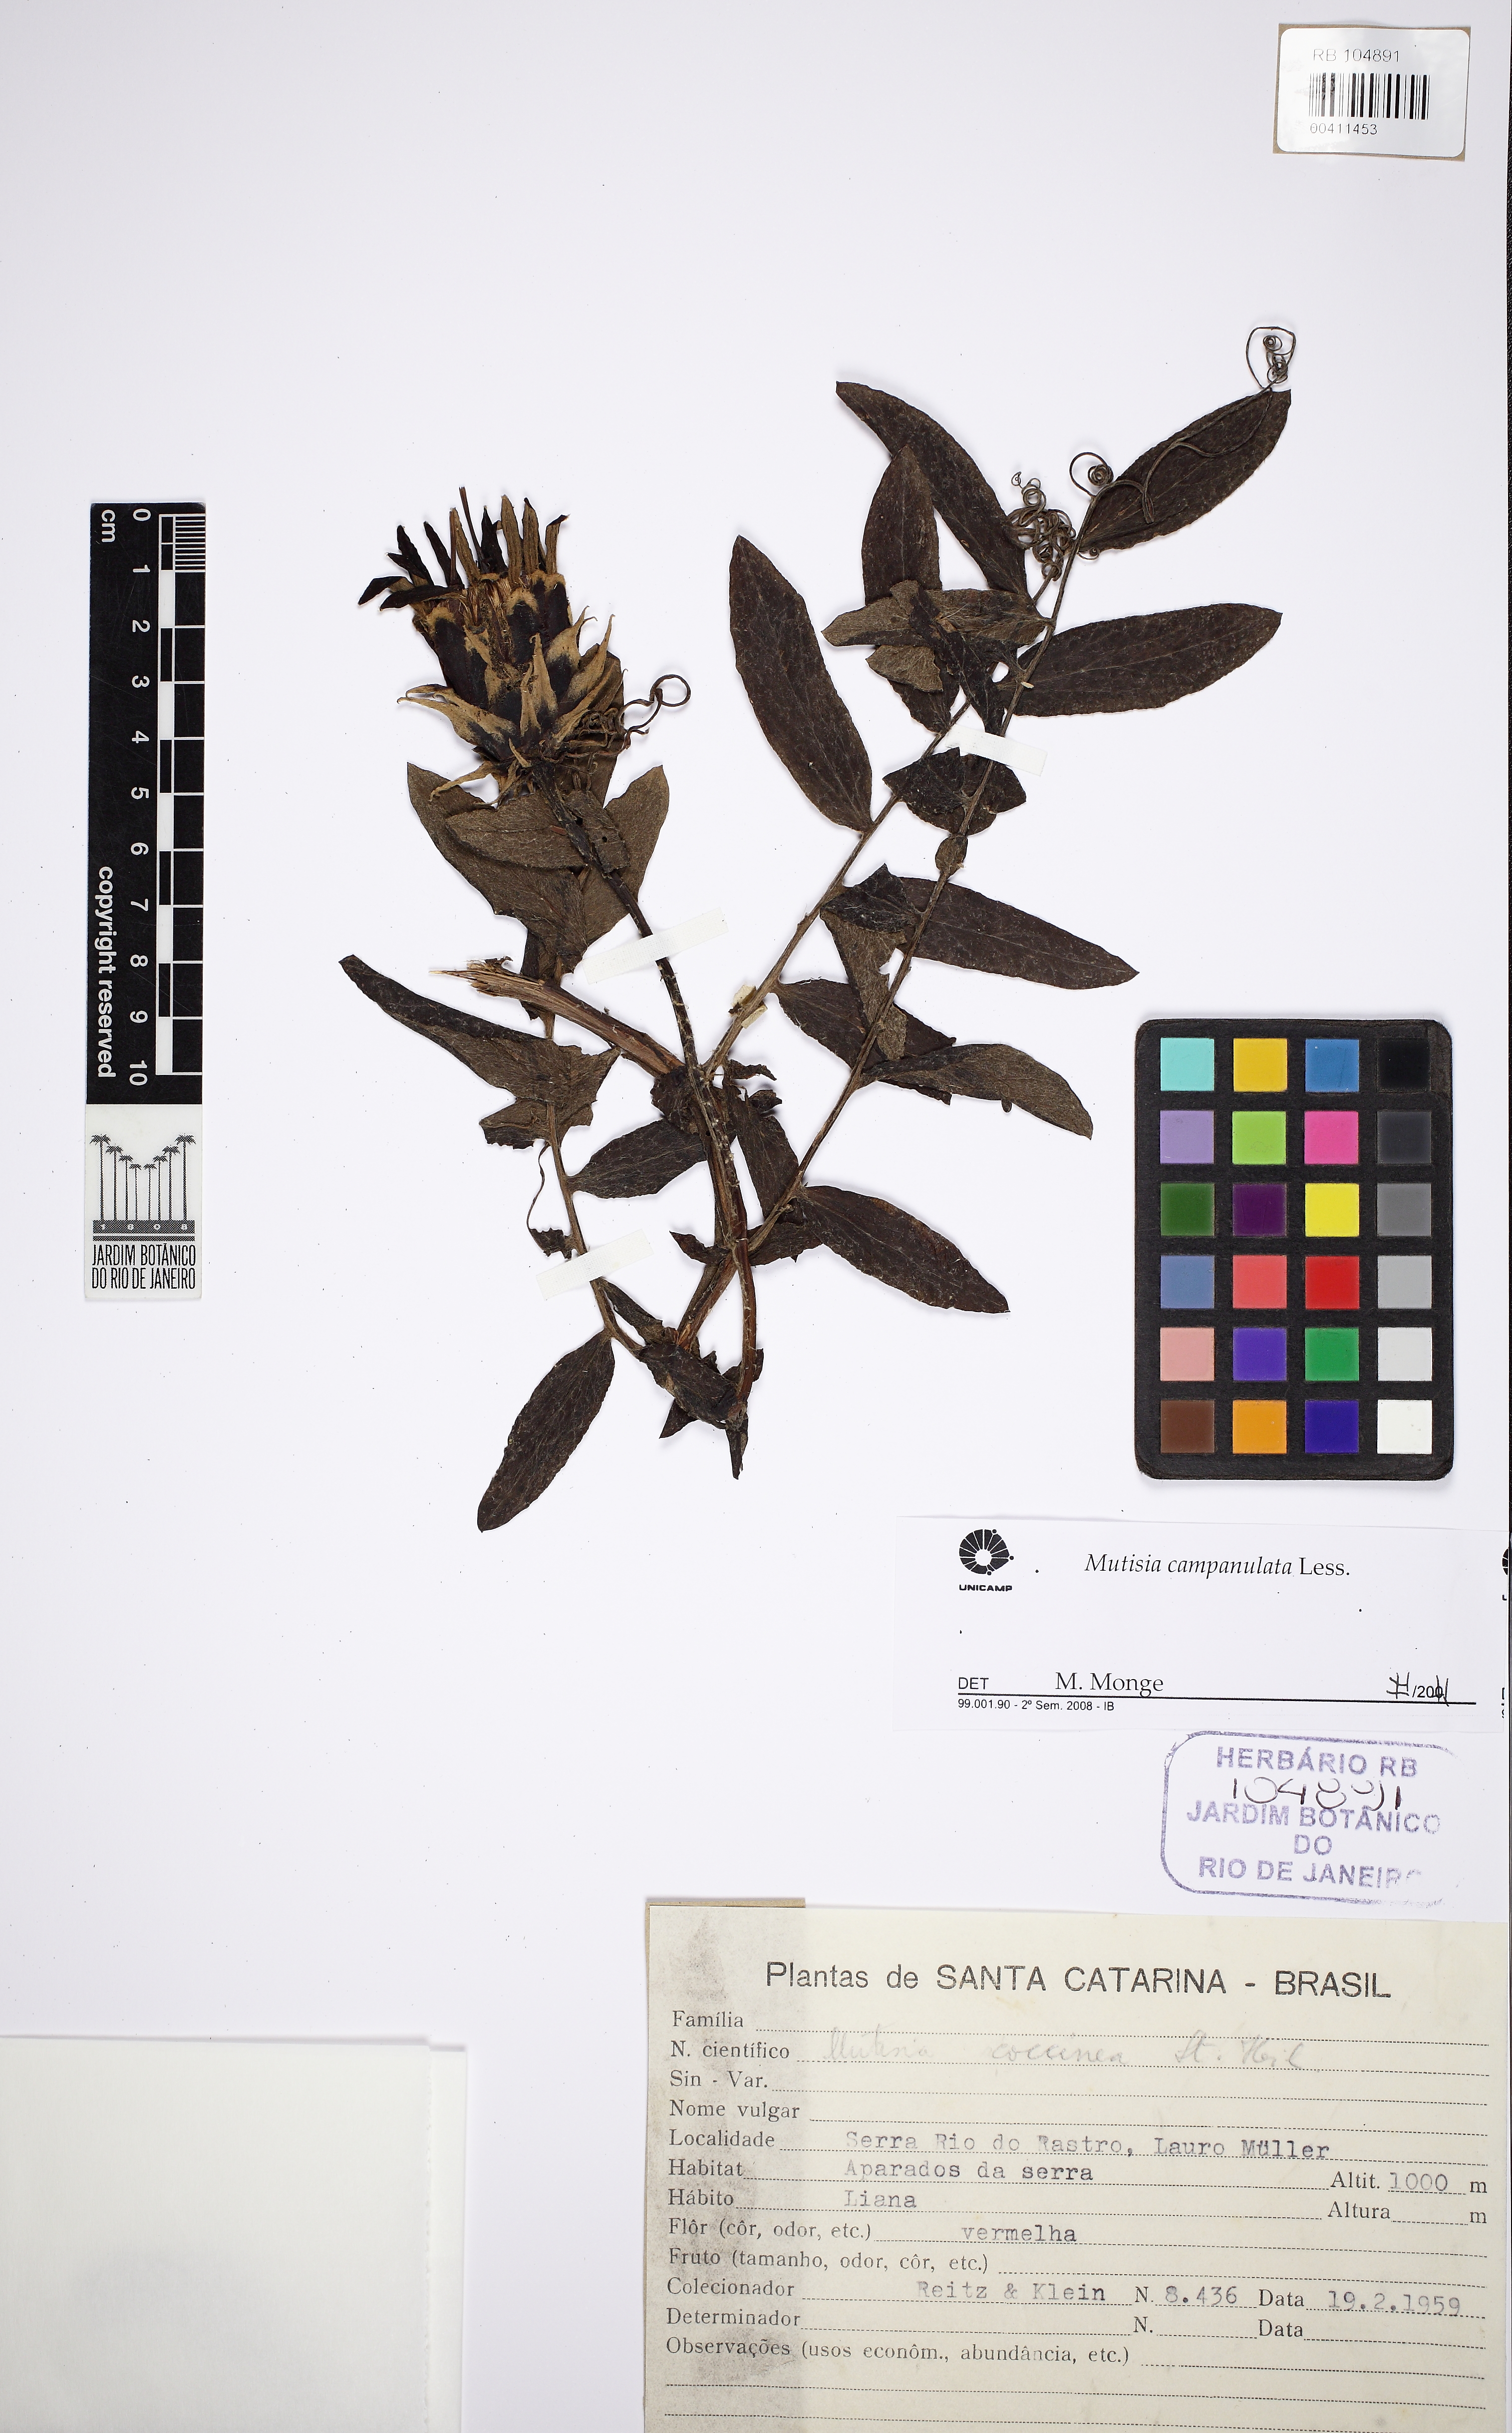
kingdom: Plantae
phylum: Tracheophyta
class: Magnoliopsida
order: Asterales
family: Asteraceae
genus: Mutisia
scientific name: Mutisia campanulata
